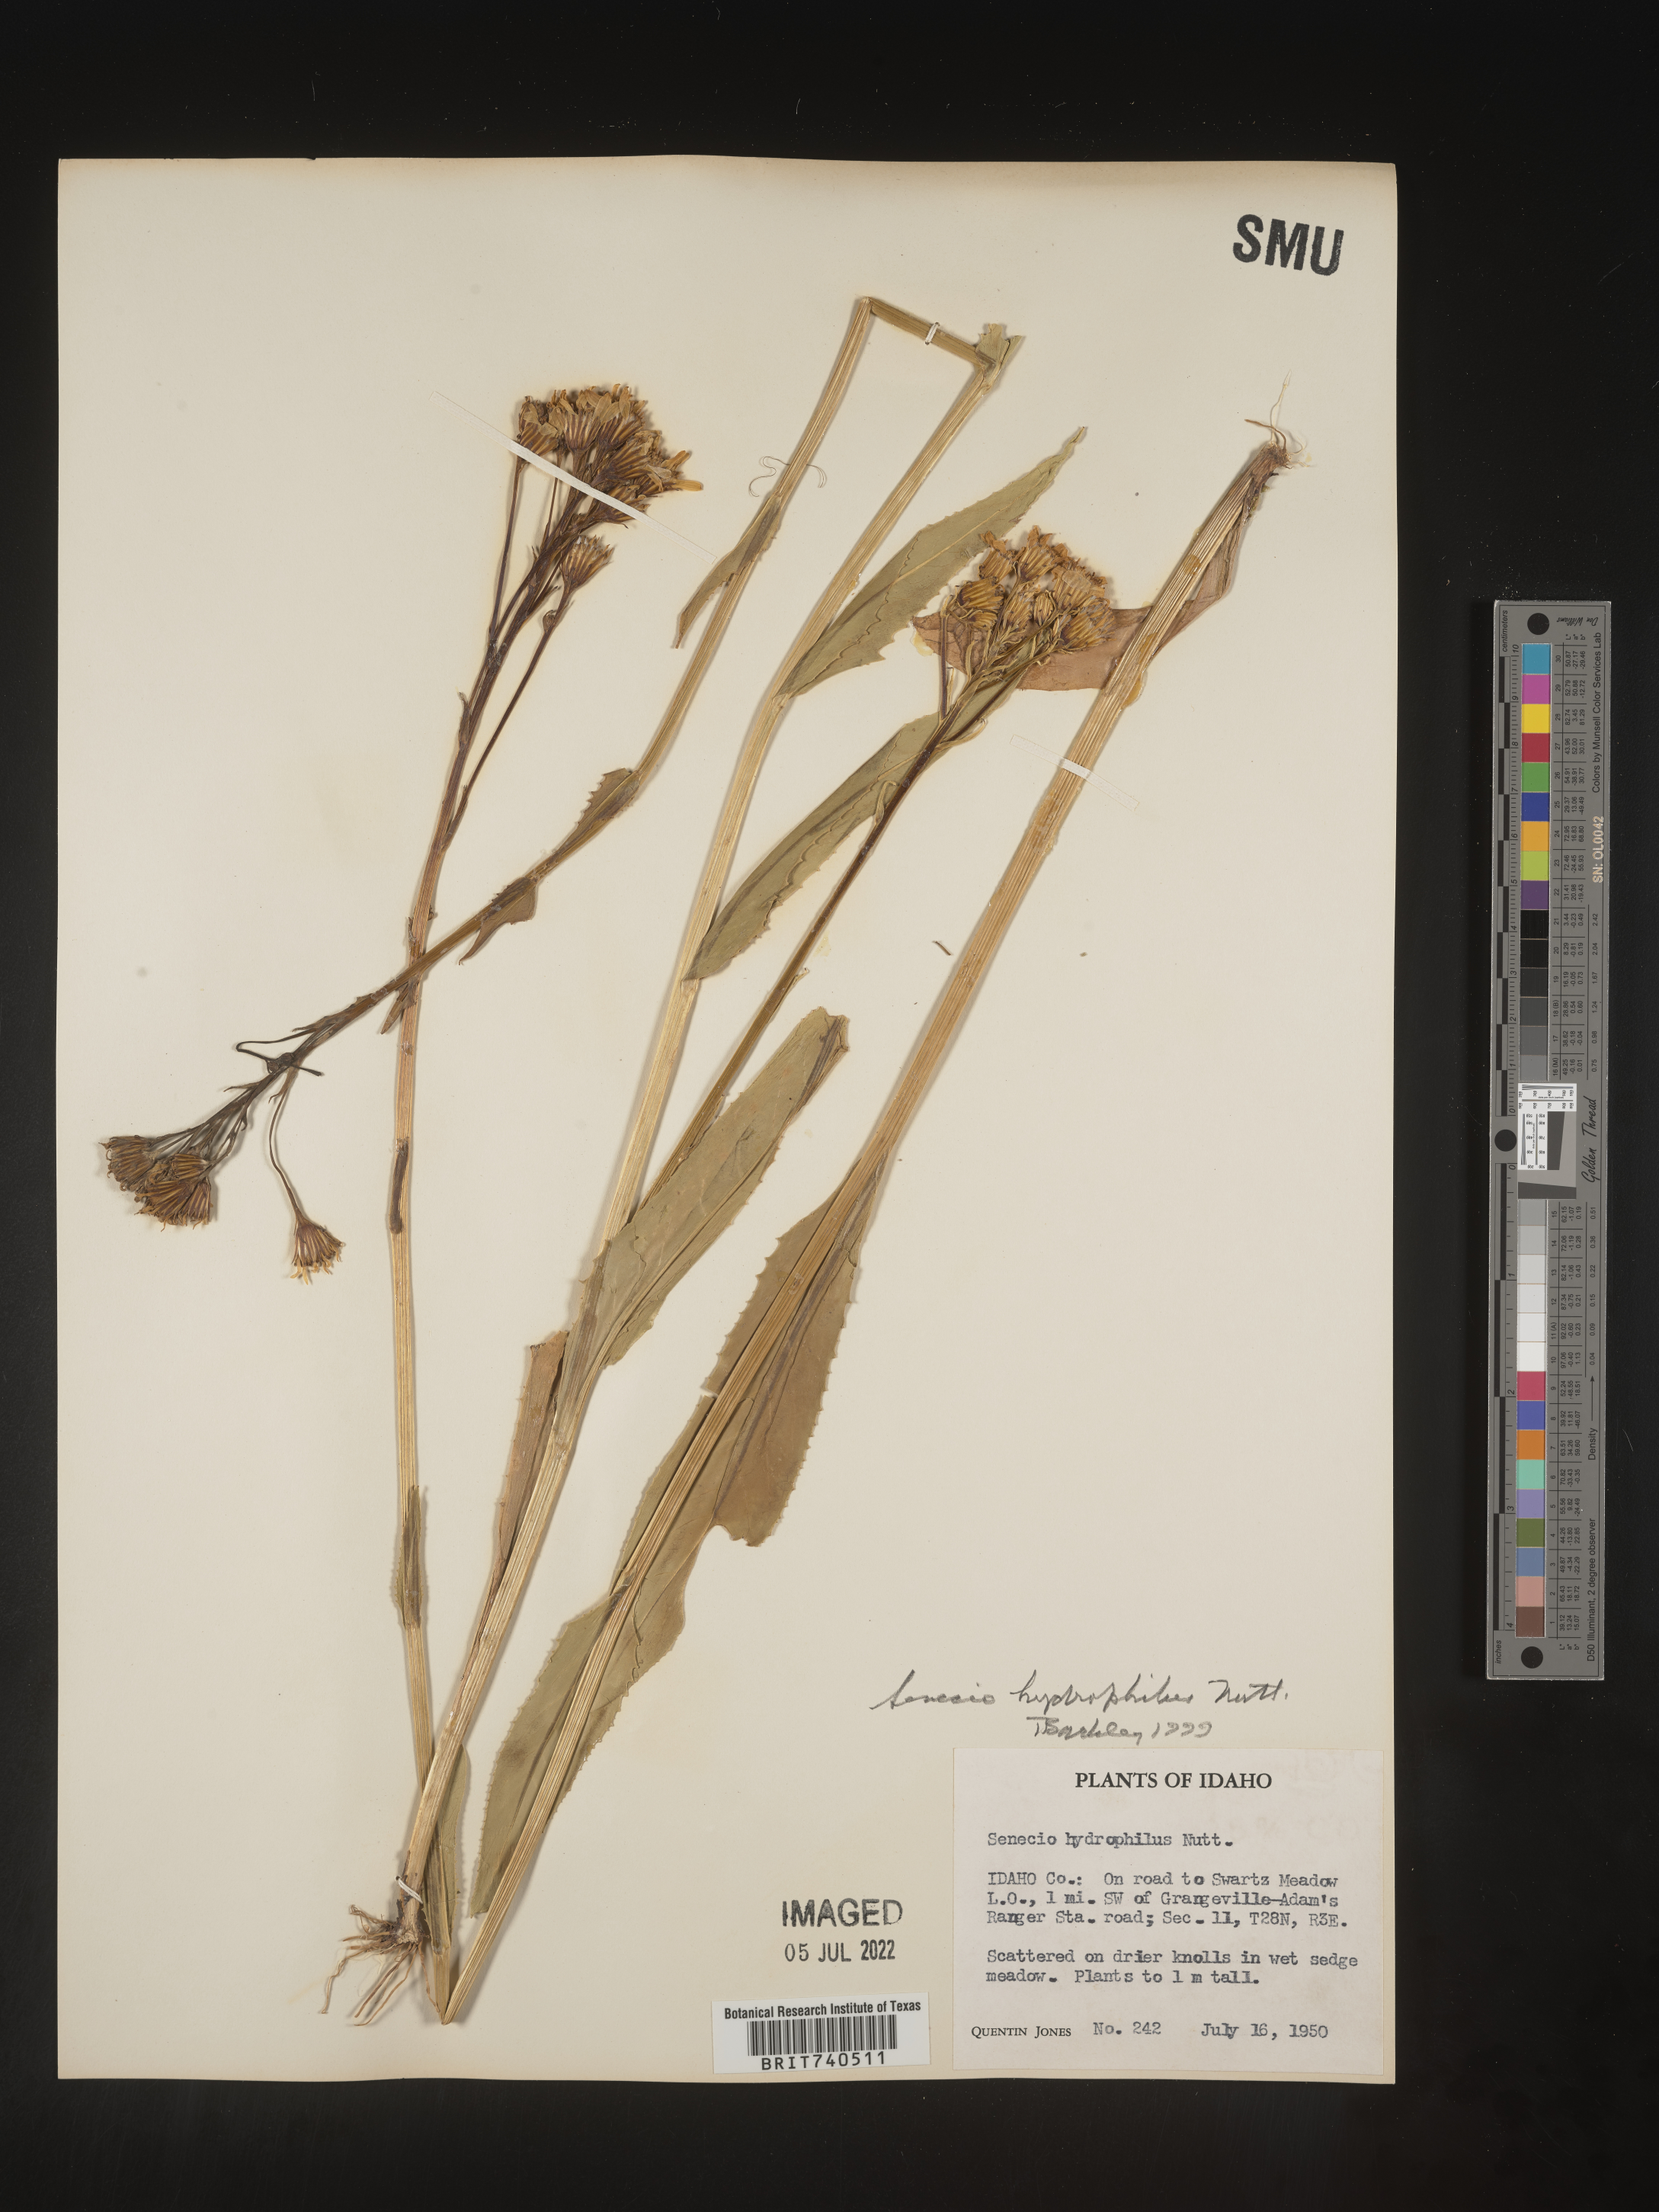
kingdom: Plantae
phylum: Tracheophyta
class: Magnoliopsida
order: Asterales
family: Asteraceae
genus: Senecio
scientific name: Senecio hydrophilus
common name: Water ragwort
